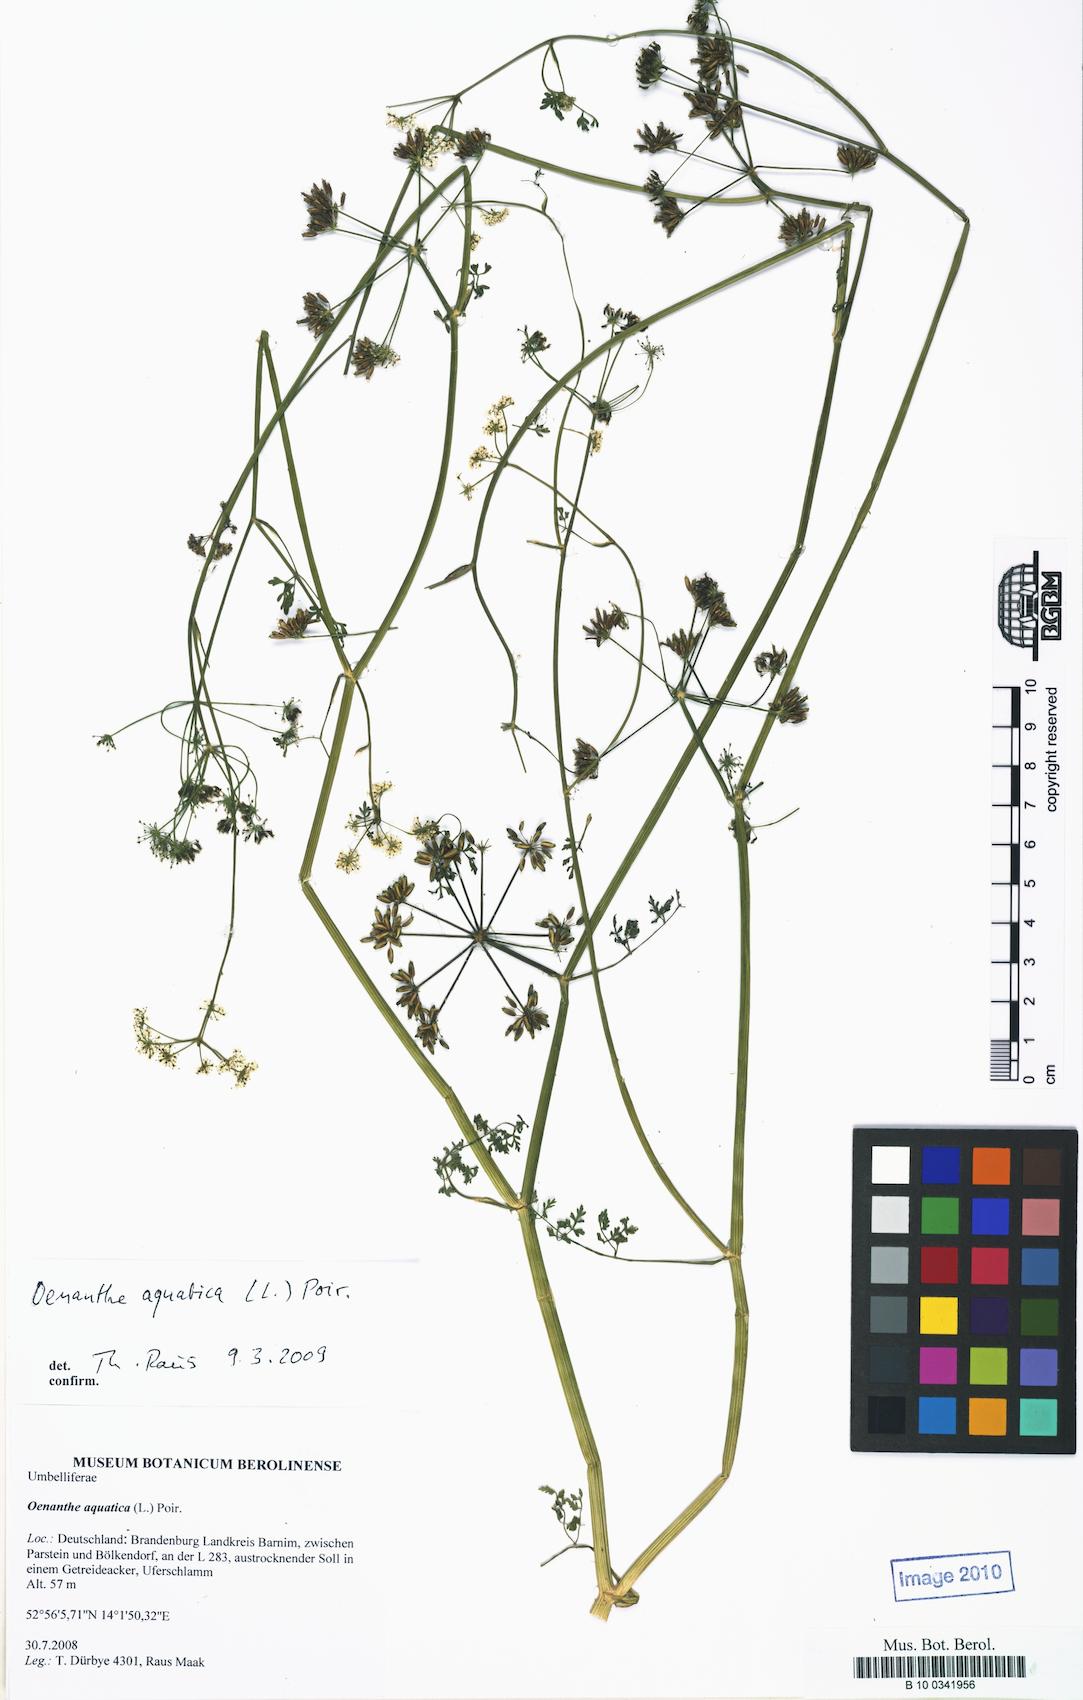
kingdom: Plantae
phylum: Tracheophyta
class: Magnoliopsida
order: Apiales
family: Apiaceae
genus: Oenanthe
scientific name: Oenanthe aquatica
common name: Fine-leaved water-dropwort
